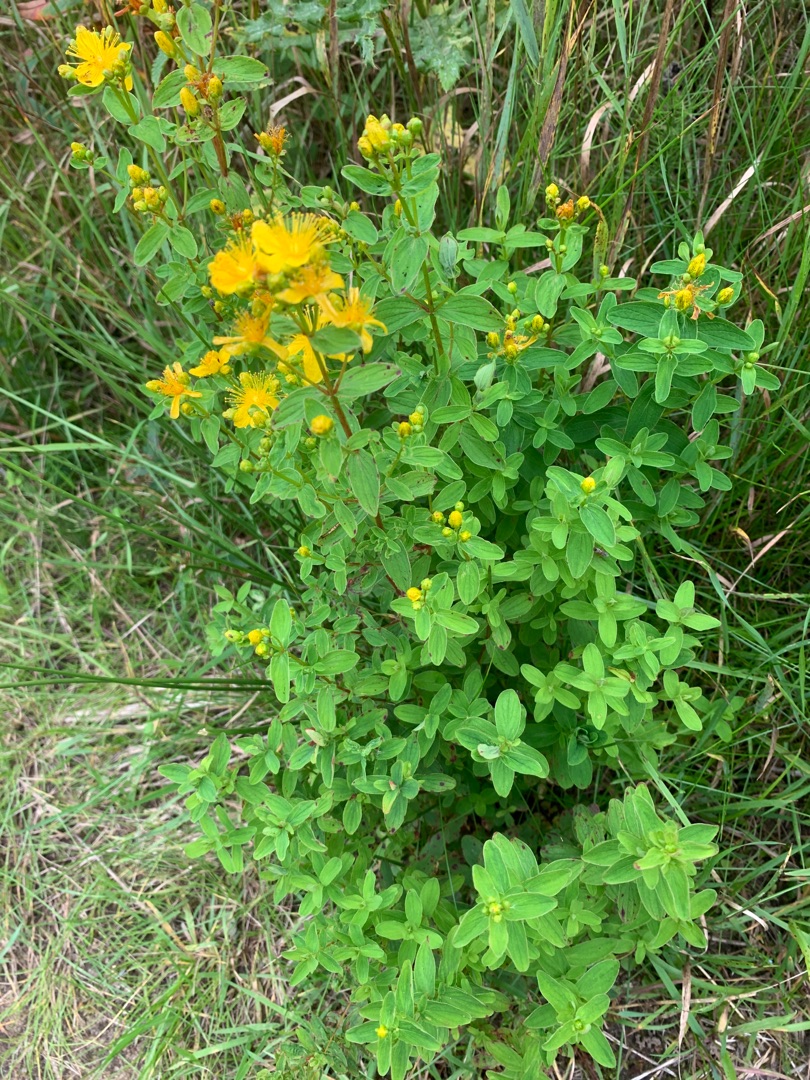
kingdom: Plantae
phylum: Tracheophyta
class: Magnoliopsida
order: Malpighiales
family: Hypericaceae
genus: Hypericum
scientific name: Hypericum maculatum
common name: Kantet perikon
